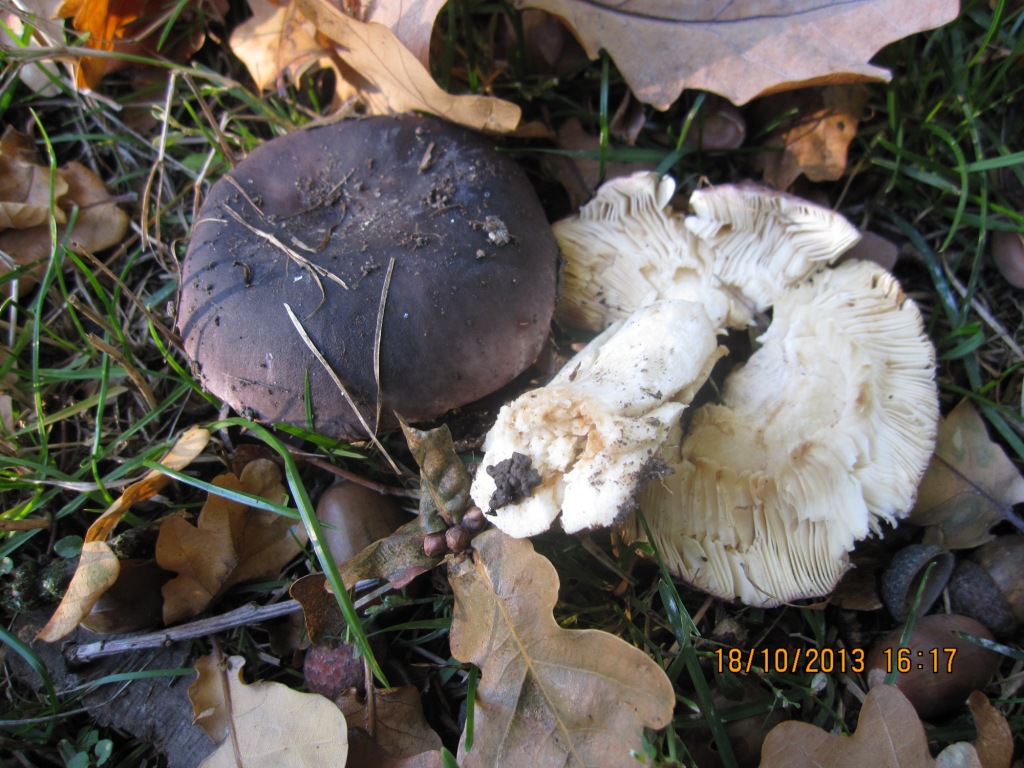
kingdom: Fungi
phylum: Basidiomycota
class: Agaricomycetes
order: Russulales
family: Russulaceae
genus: Russula
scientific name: Russula
